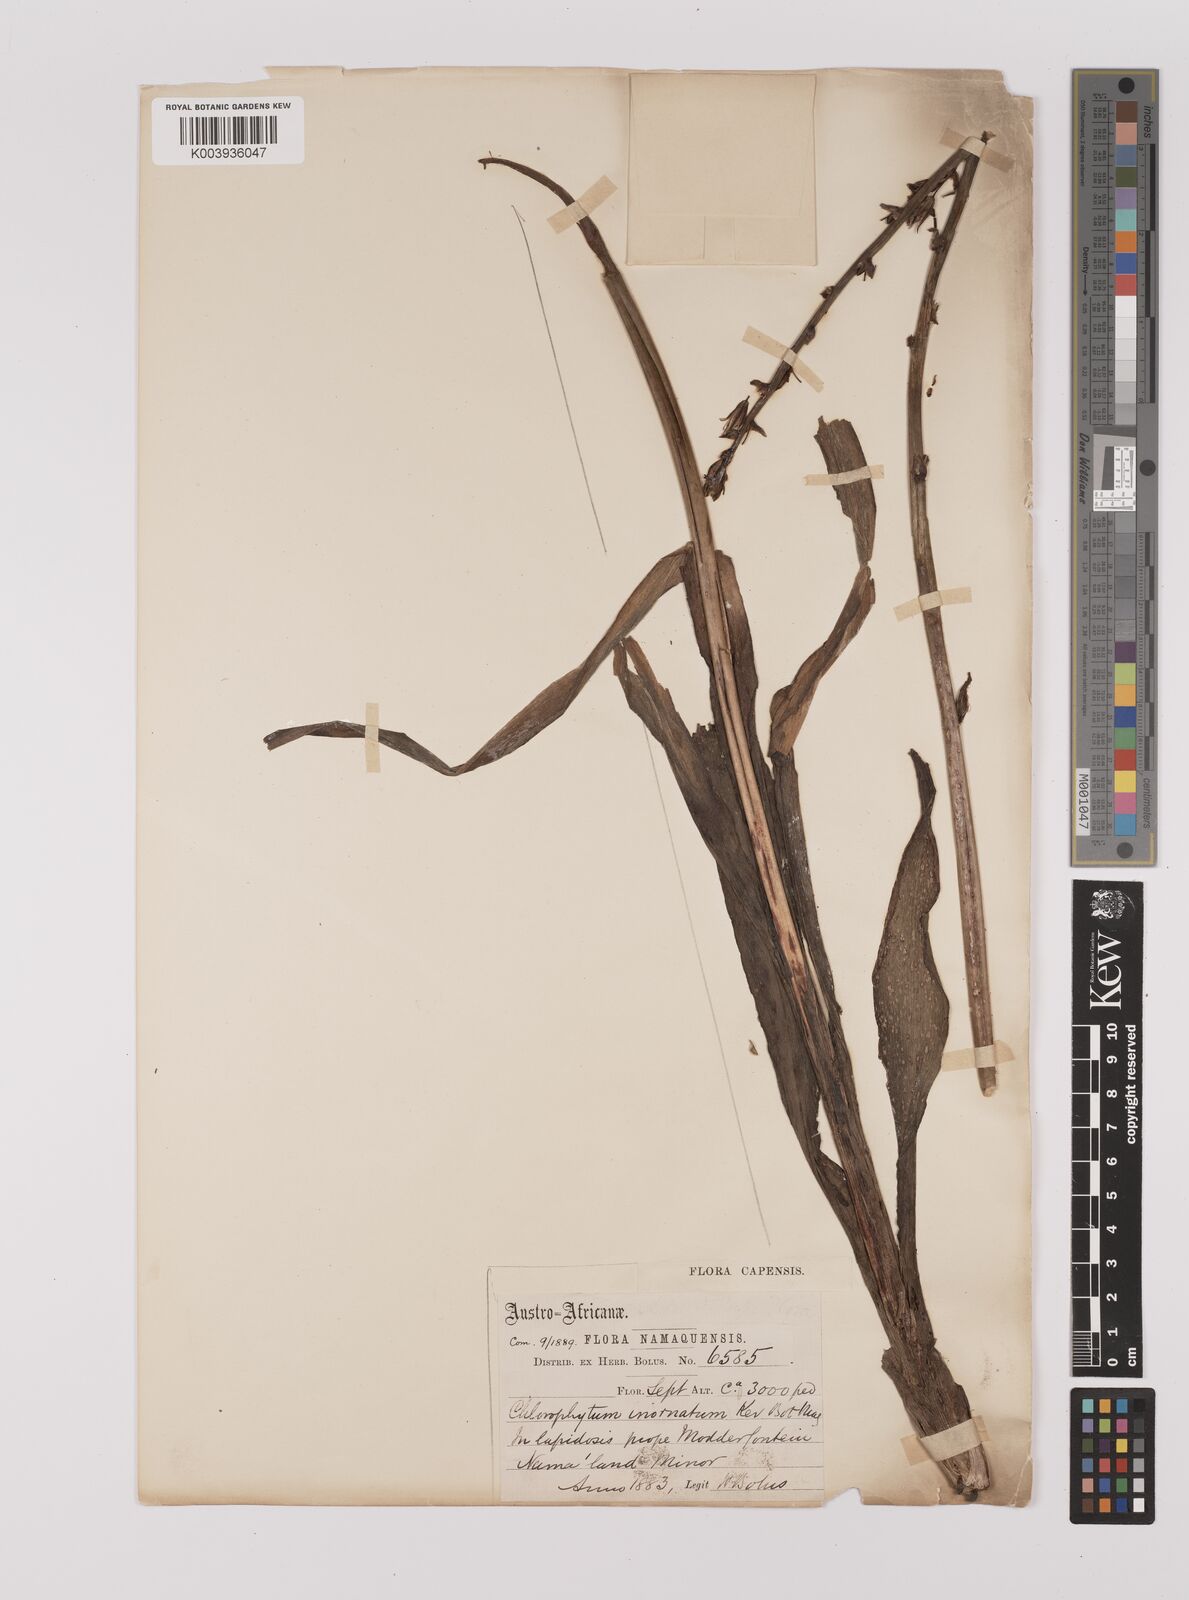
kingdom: Plantae
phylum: Tracheophyta
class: Liliopsida
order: Asparagales
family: Asparagaceae
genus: Chlorophytum
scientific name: Chlorophytum namaquense
